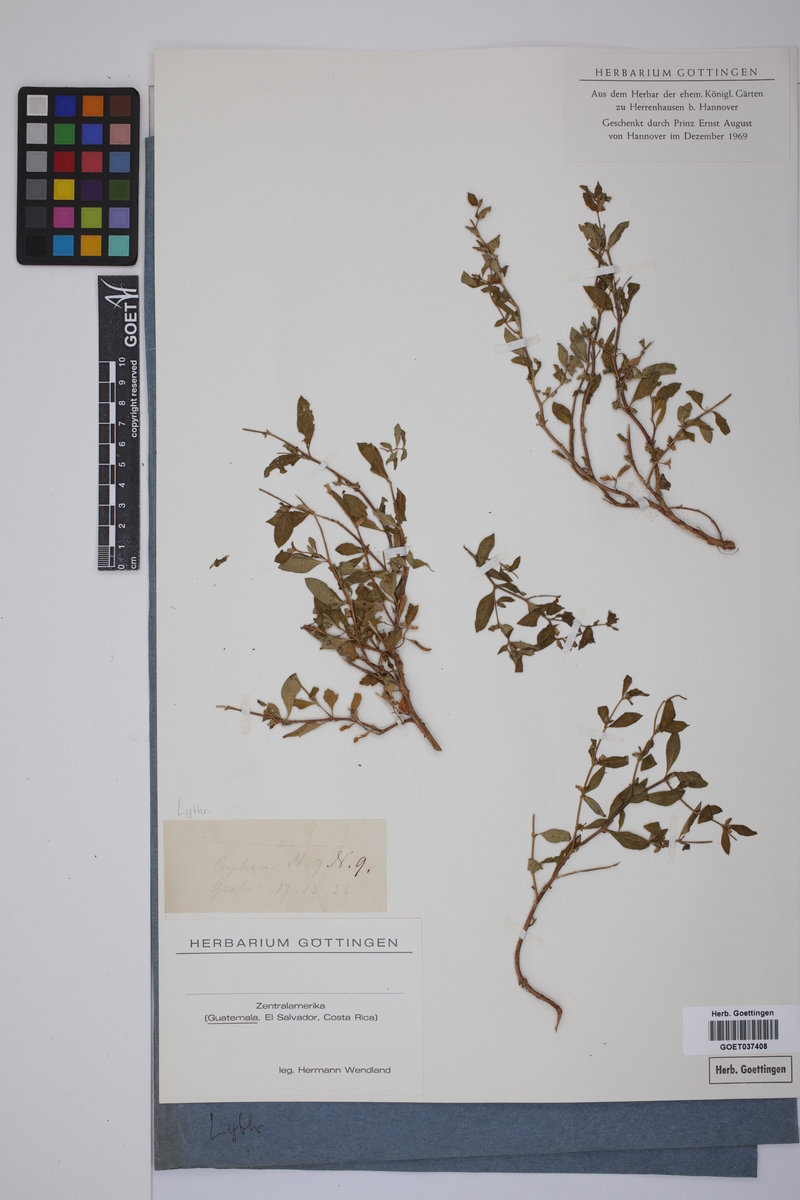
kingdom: Plantae
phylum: Tracheophyta
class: Magnoliopsida
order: Myrtales
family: Lythraceae
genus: Cuphea
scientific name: Cuphea
